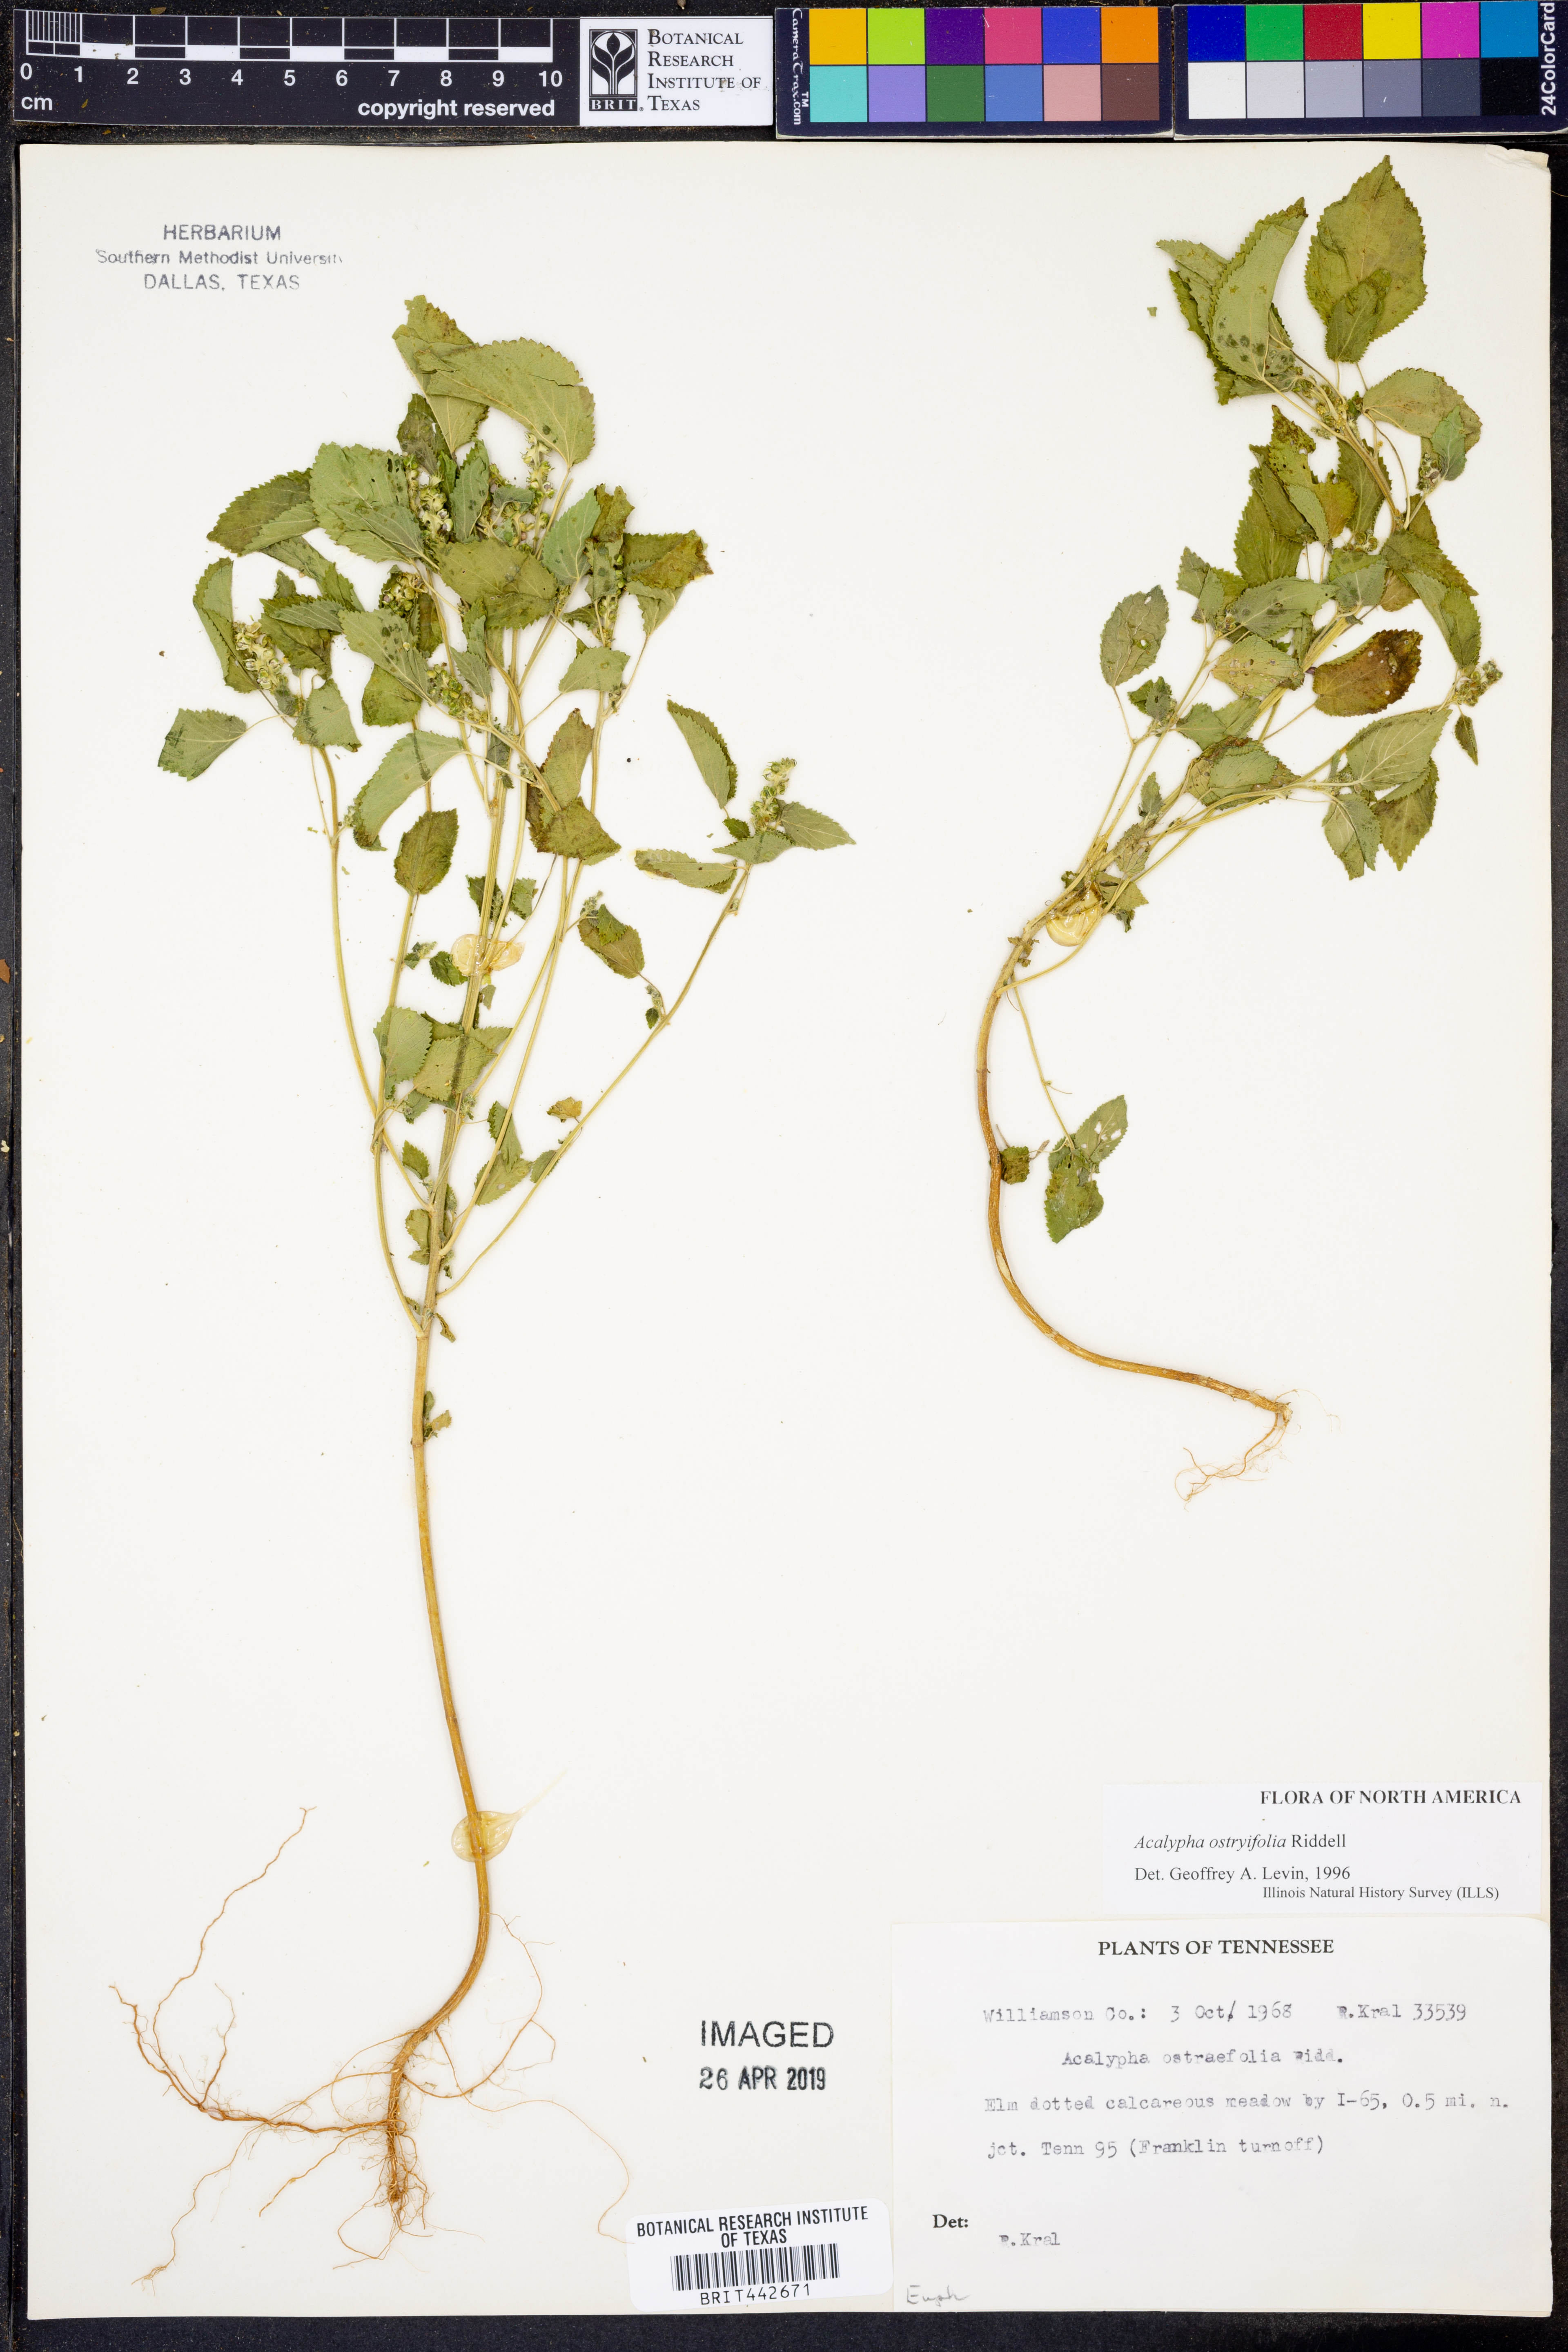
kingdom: Plantae
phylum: Tracheophyta
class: Magnoliopsida
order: Malpighiales
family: Euphorbiaceae
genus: Acalypha
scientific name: Acalypha persimilis
